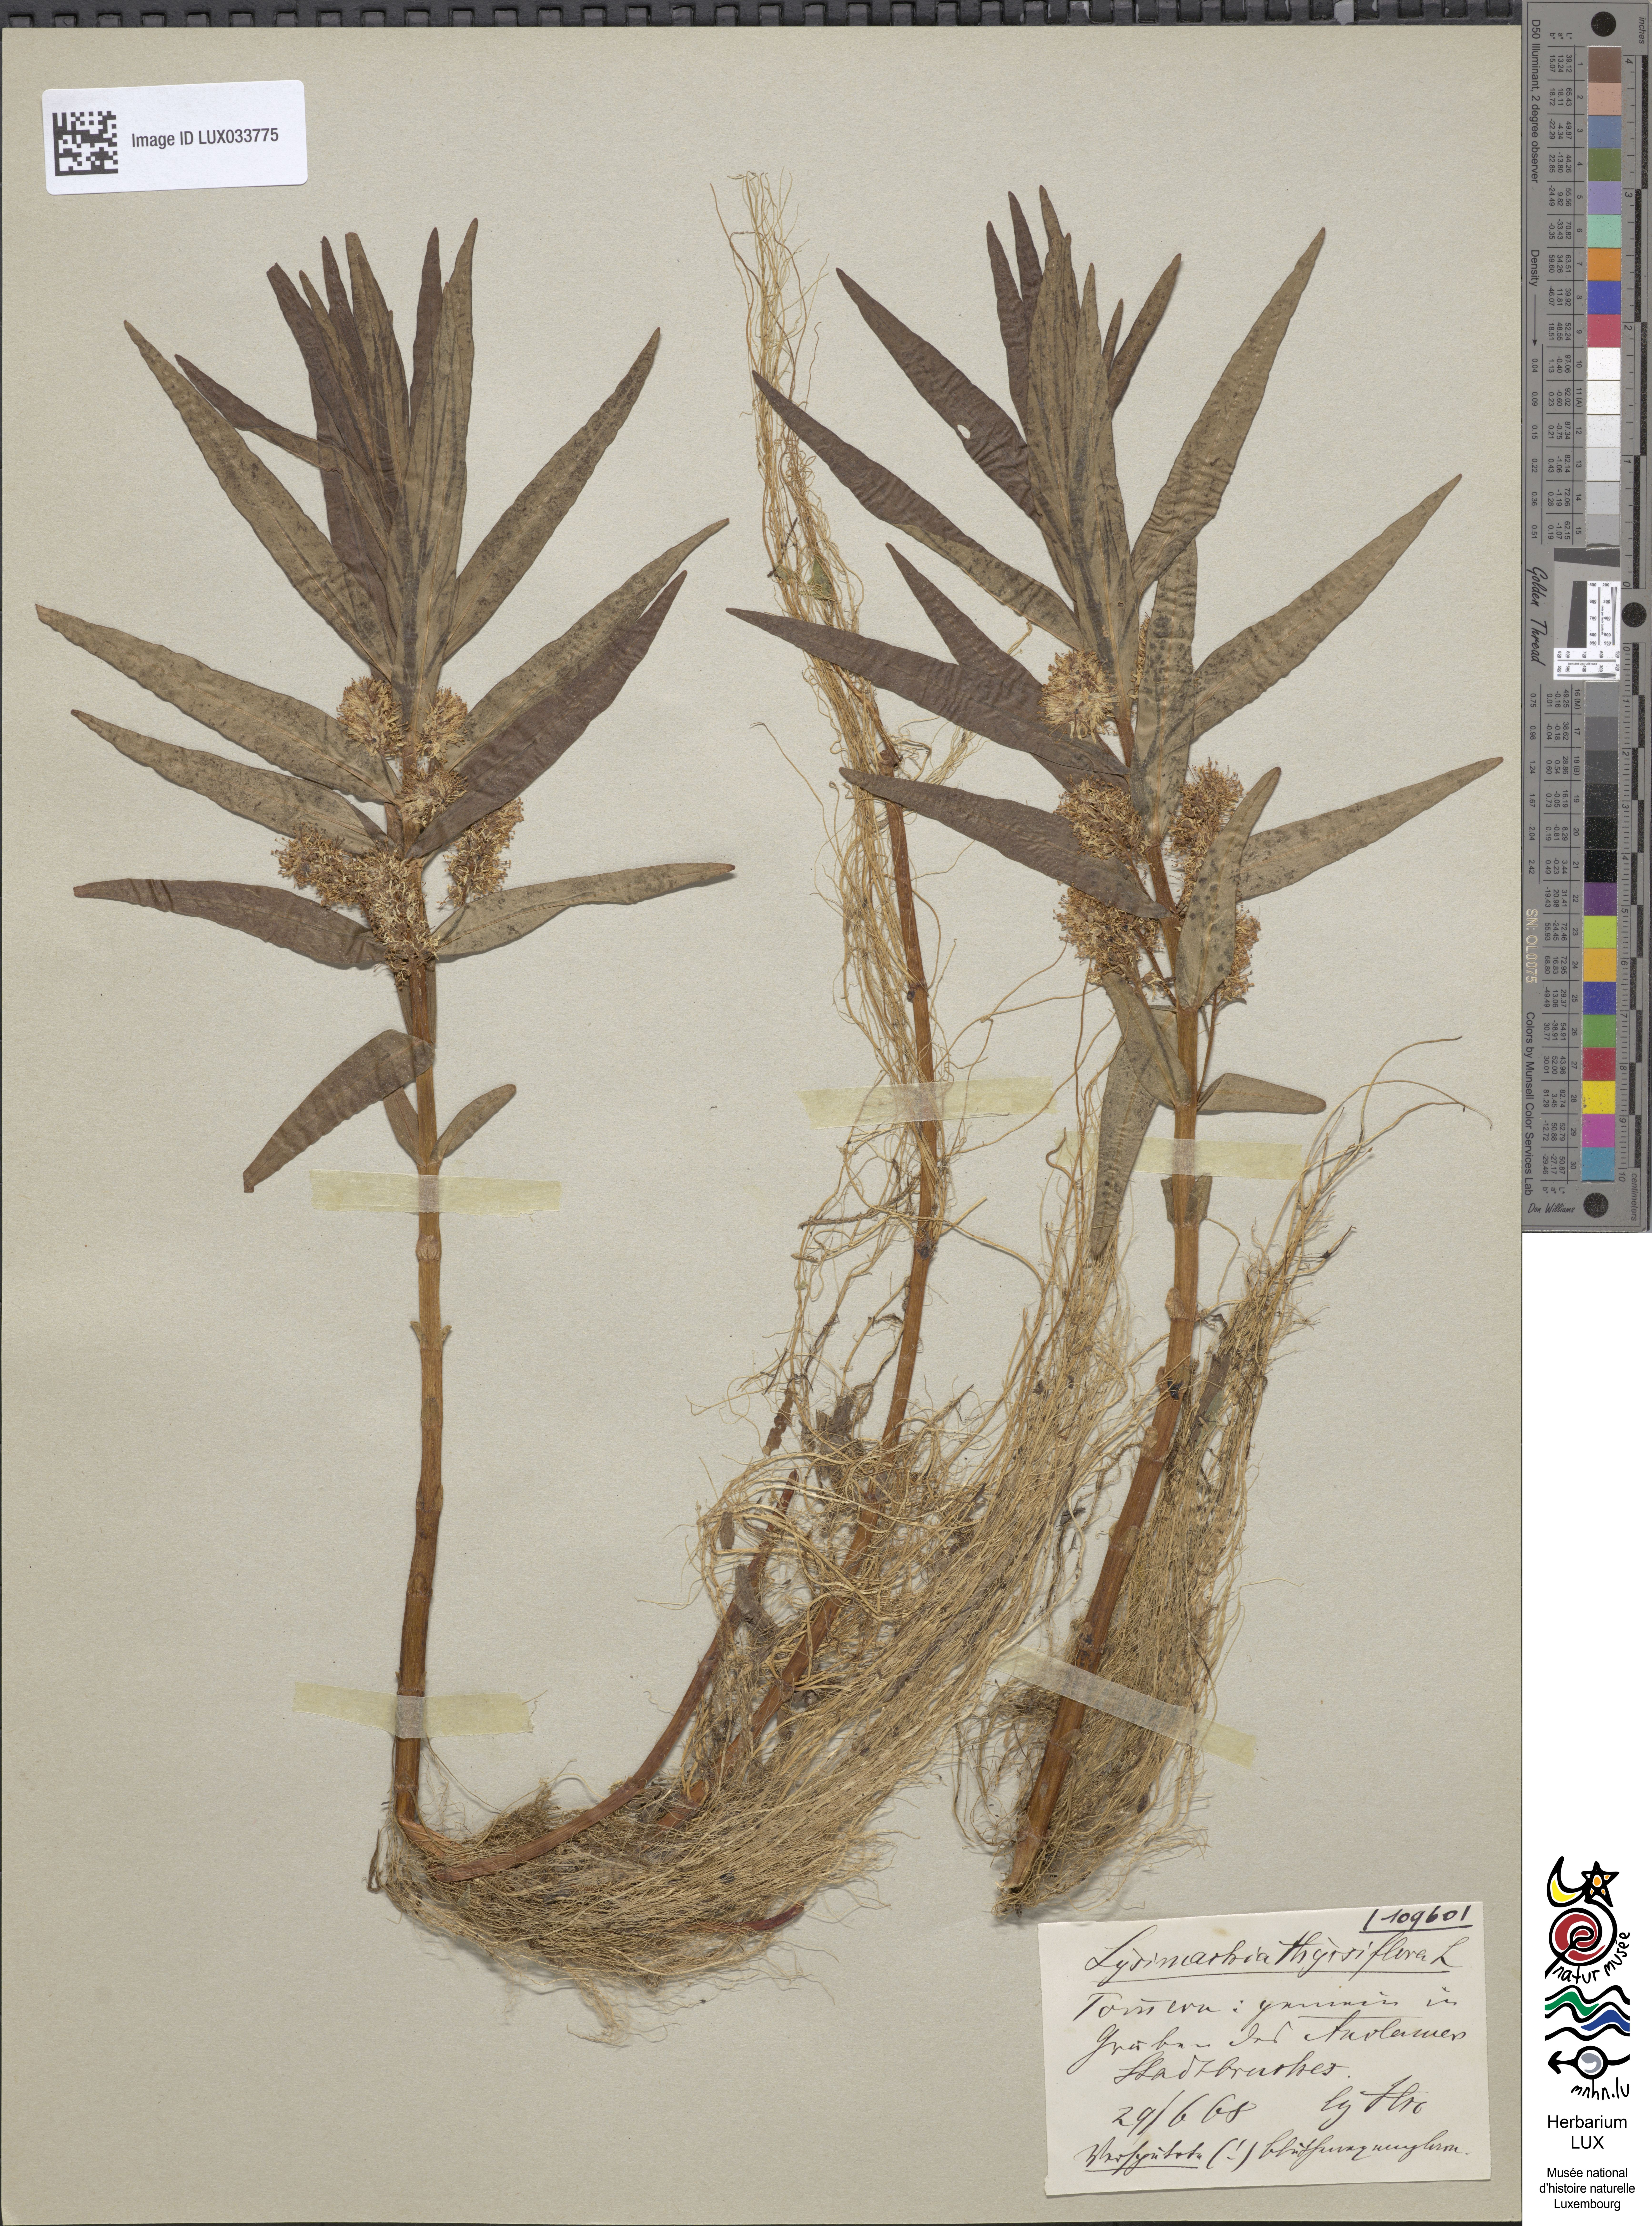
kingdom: Plantae
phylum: Tracheophyta
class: Magnoliopsida
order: Ericales
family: Primulaceae
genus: Lysimachia
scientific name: Lysimachia thyrsiflora
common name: Tufted loosestrife
